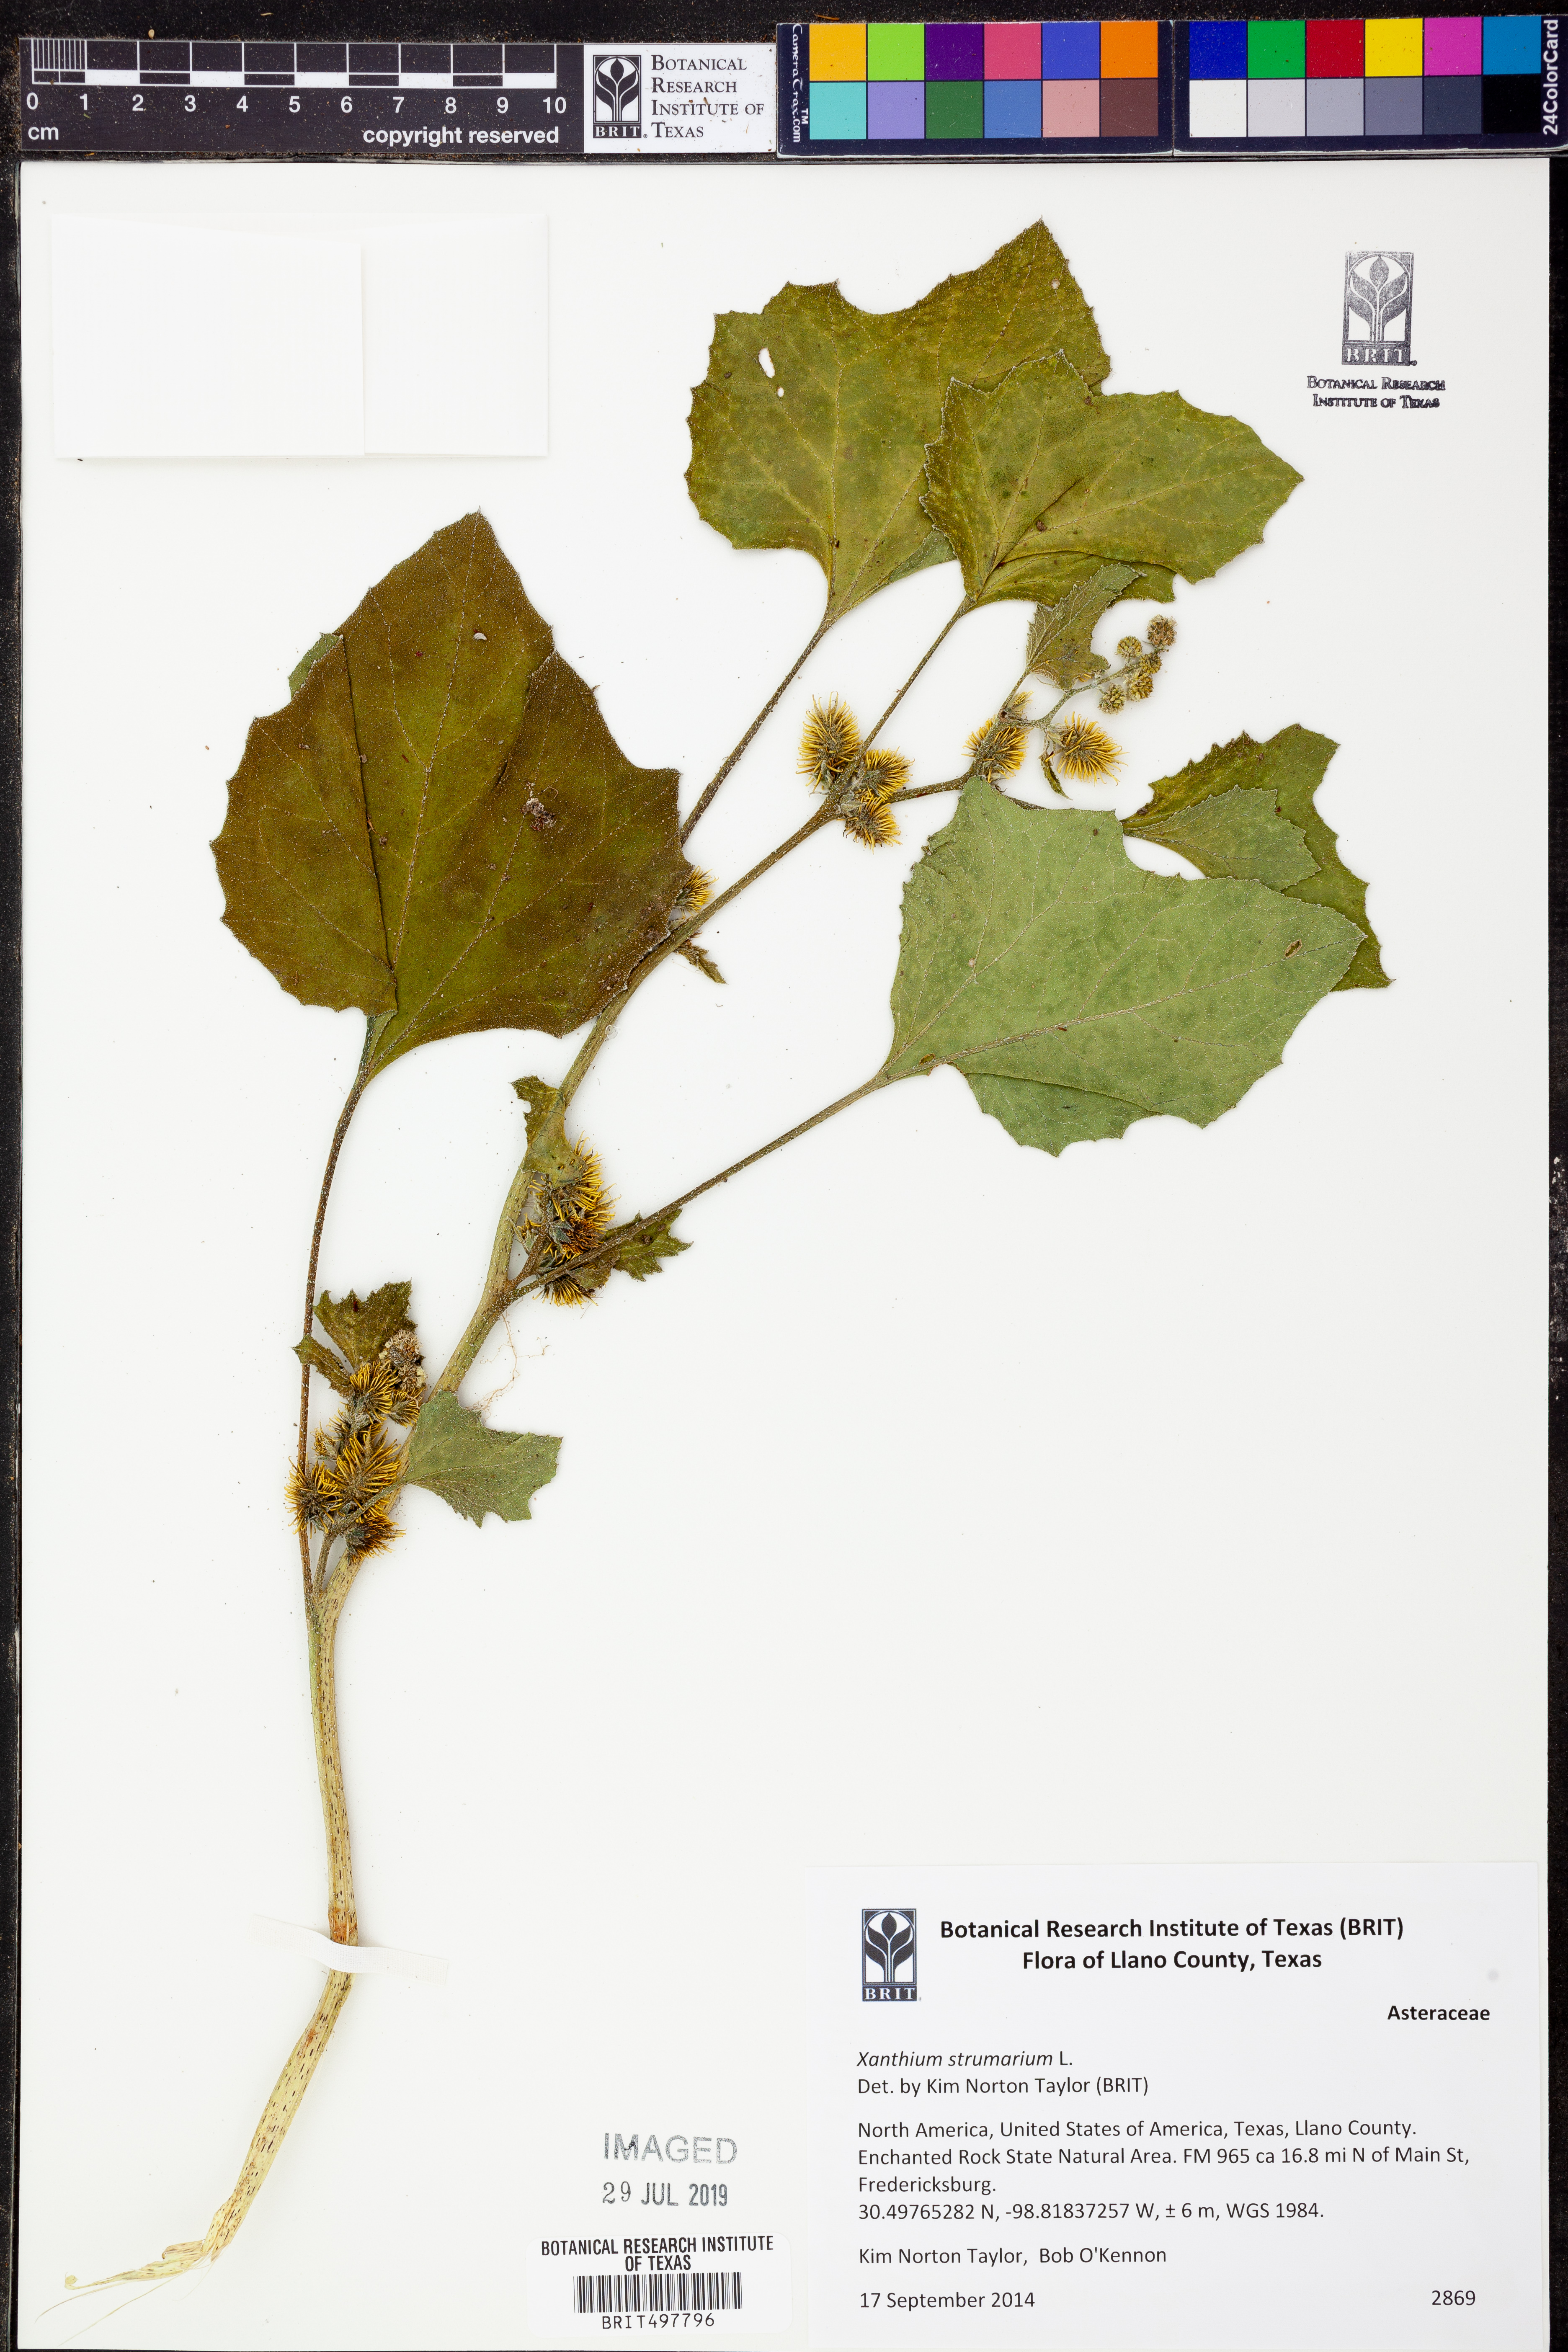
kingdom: Plantae
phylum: Tracheophyta
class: Magnoliopsida
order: Asterales
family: Asteraceae
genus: Xanthium
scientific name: Xanthium strumarium
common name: Rough cocklebur
